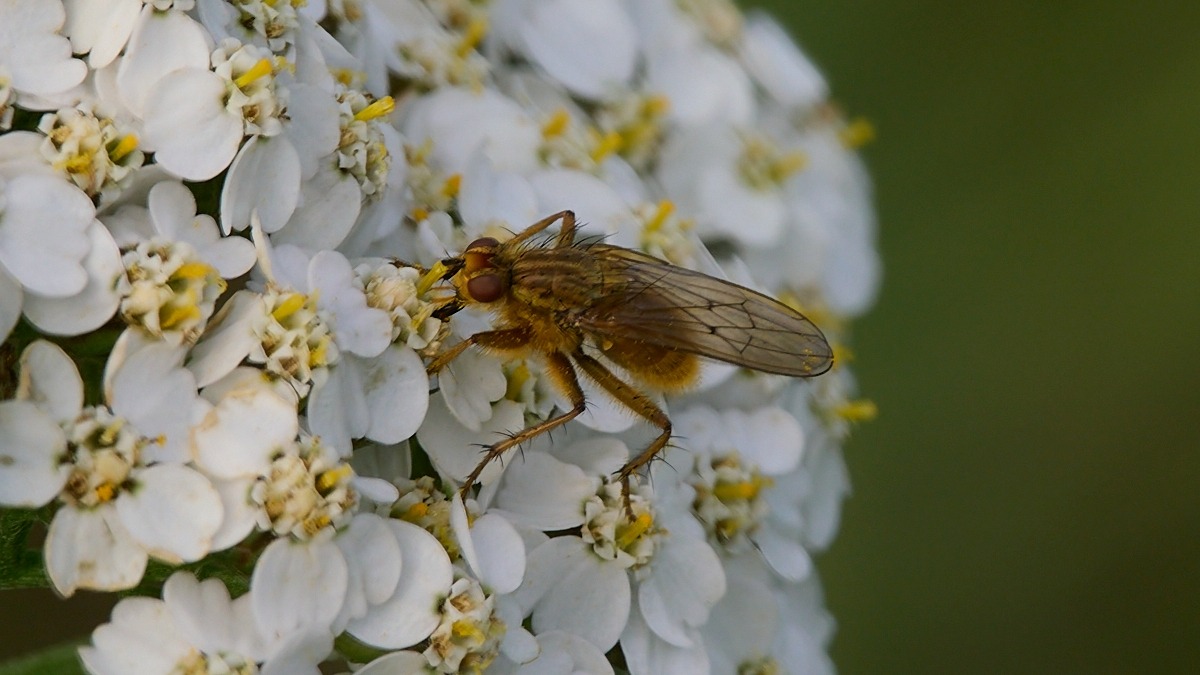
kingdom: Animalia
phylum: Arthropoda
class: Insecta
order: Diptera
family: Scathophagidae
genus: Scathophaga
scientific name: Scathophaga stercoraria
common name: Almindelig gødningsflue
